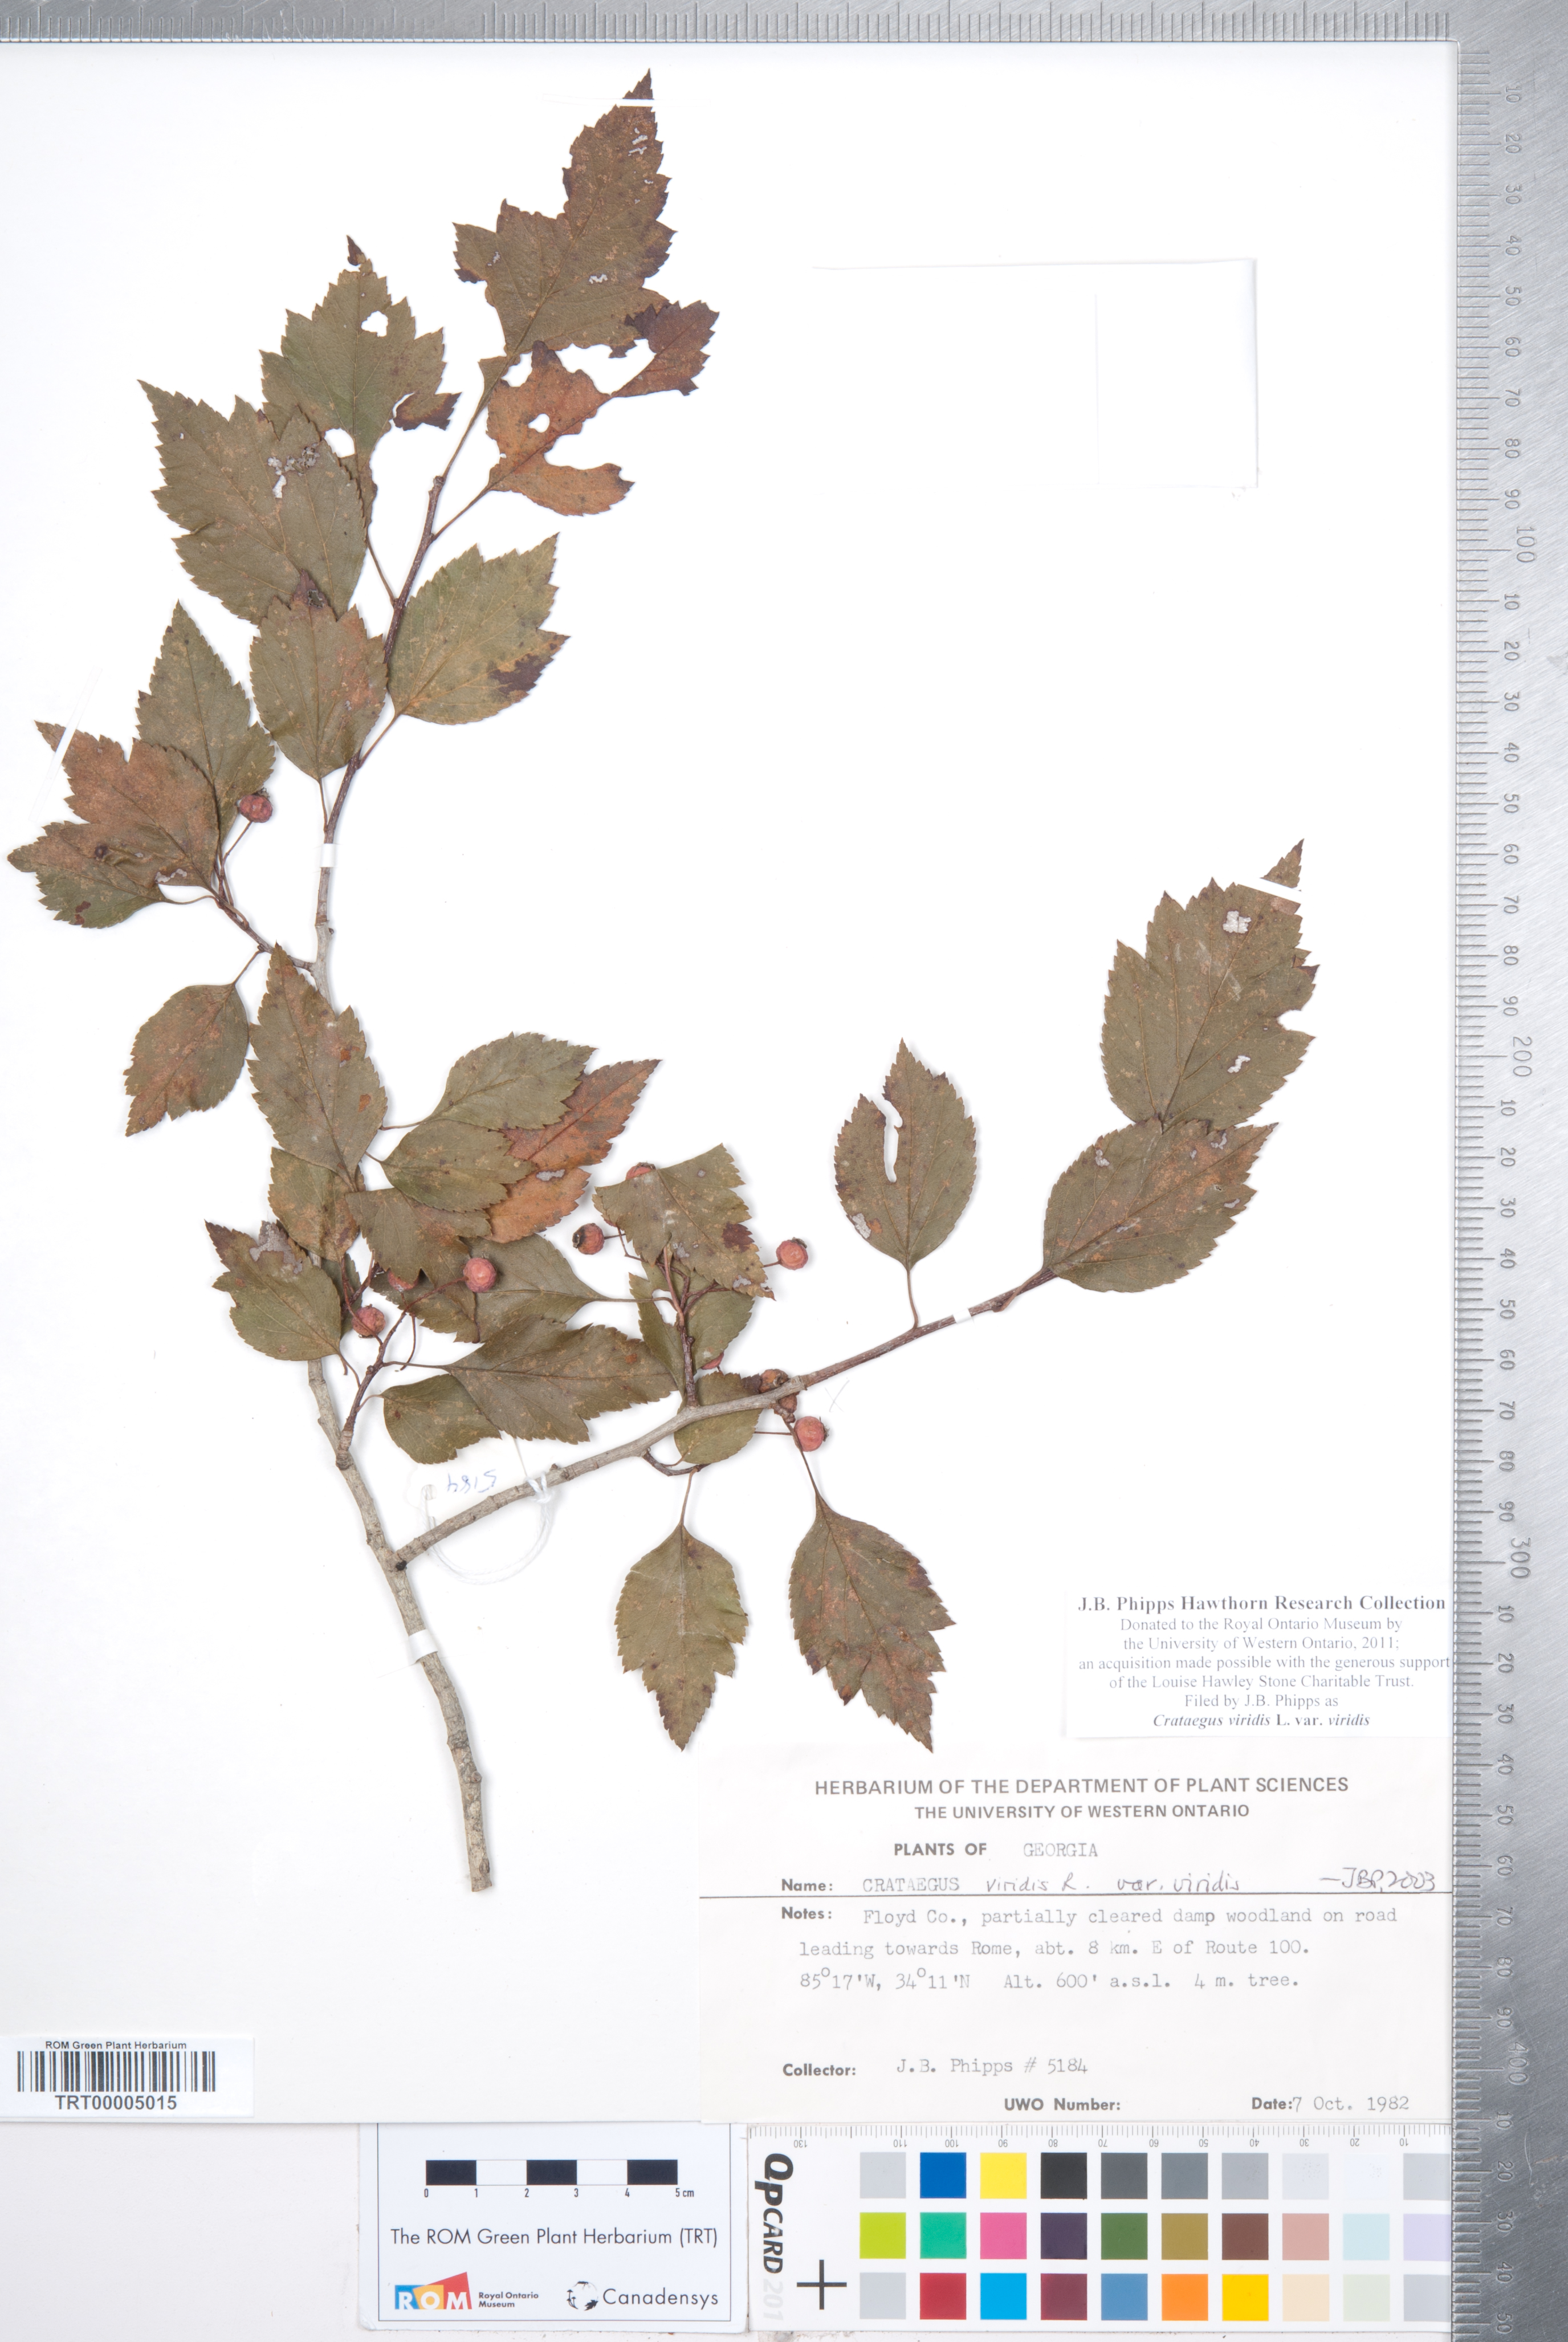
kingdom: Plantae
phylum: Tracheophyta
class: Magnoliopsida
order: Rosales
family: Rosaceae
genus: Crataegus
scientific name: Crataegus viridis
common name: Southernthorn
